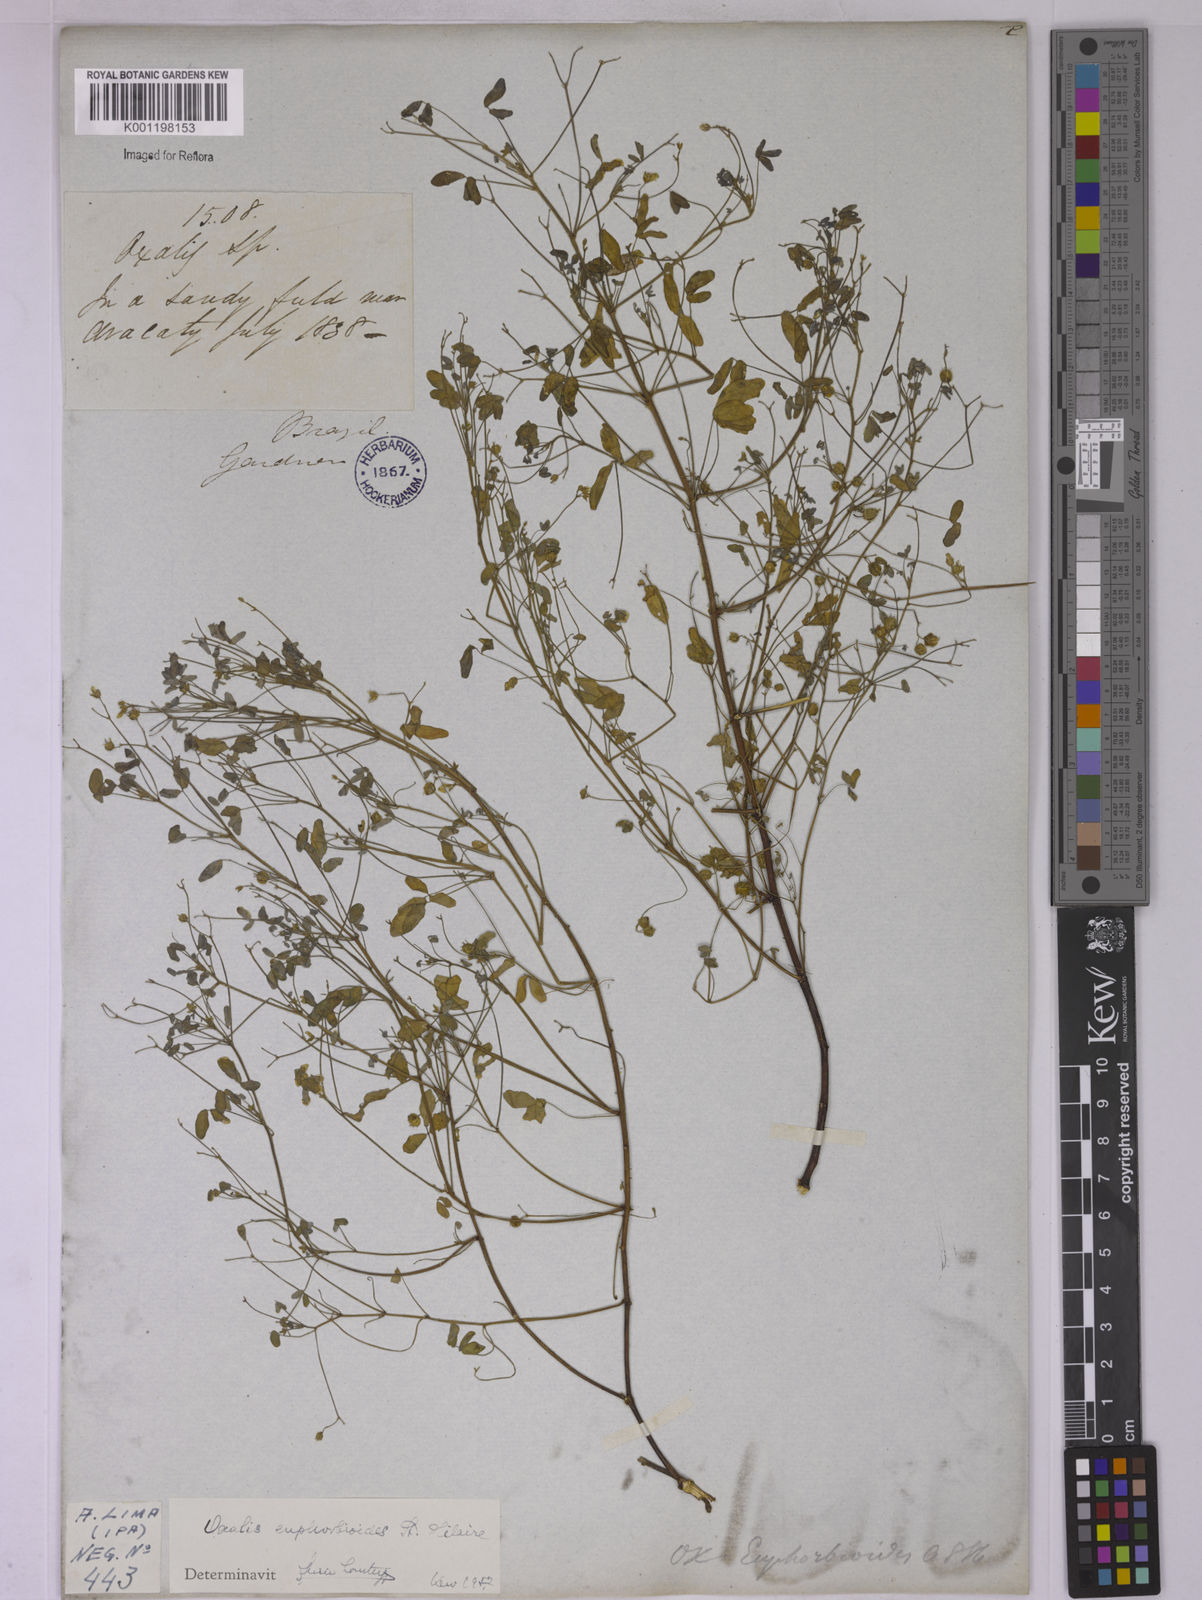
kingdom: Plantae
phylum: Tracheophyta
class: Magnoliopsida
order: Oxalidales
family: Oxalidaceae
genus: Oxalis
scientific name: Oxalis divaricata
